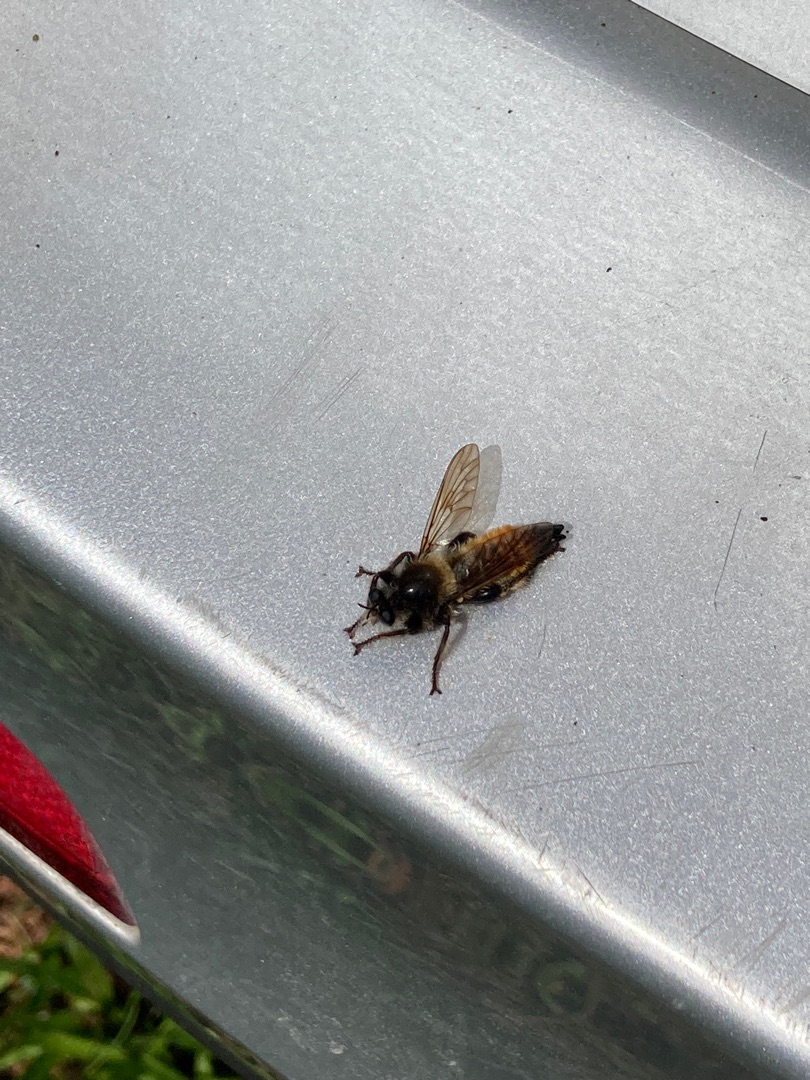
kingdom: Animalia
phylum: Arthropoda
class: Insecta
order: Diptera
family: Asilidae
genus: Laphria
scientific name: Laphria flava
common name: Gul vedrovflue
